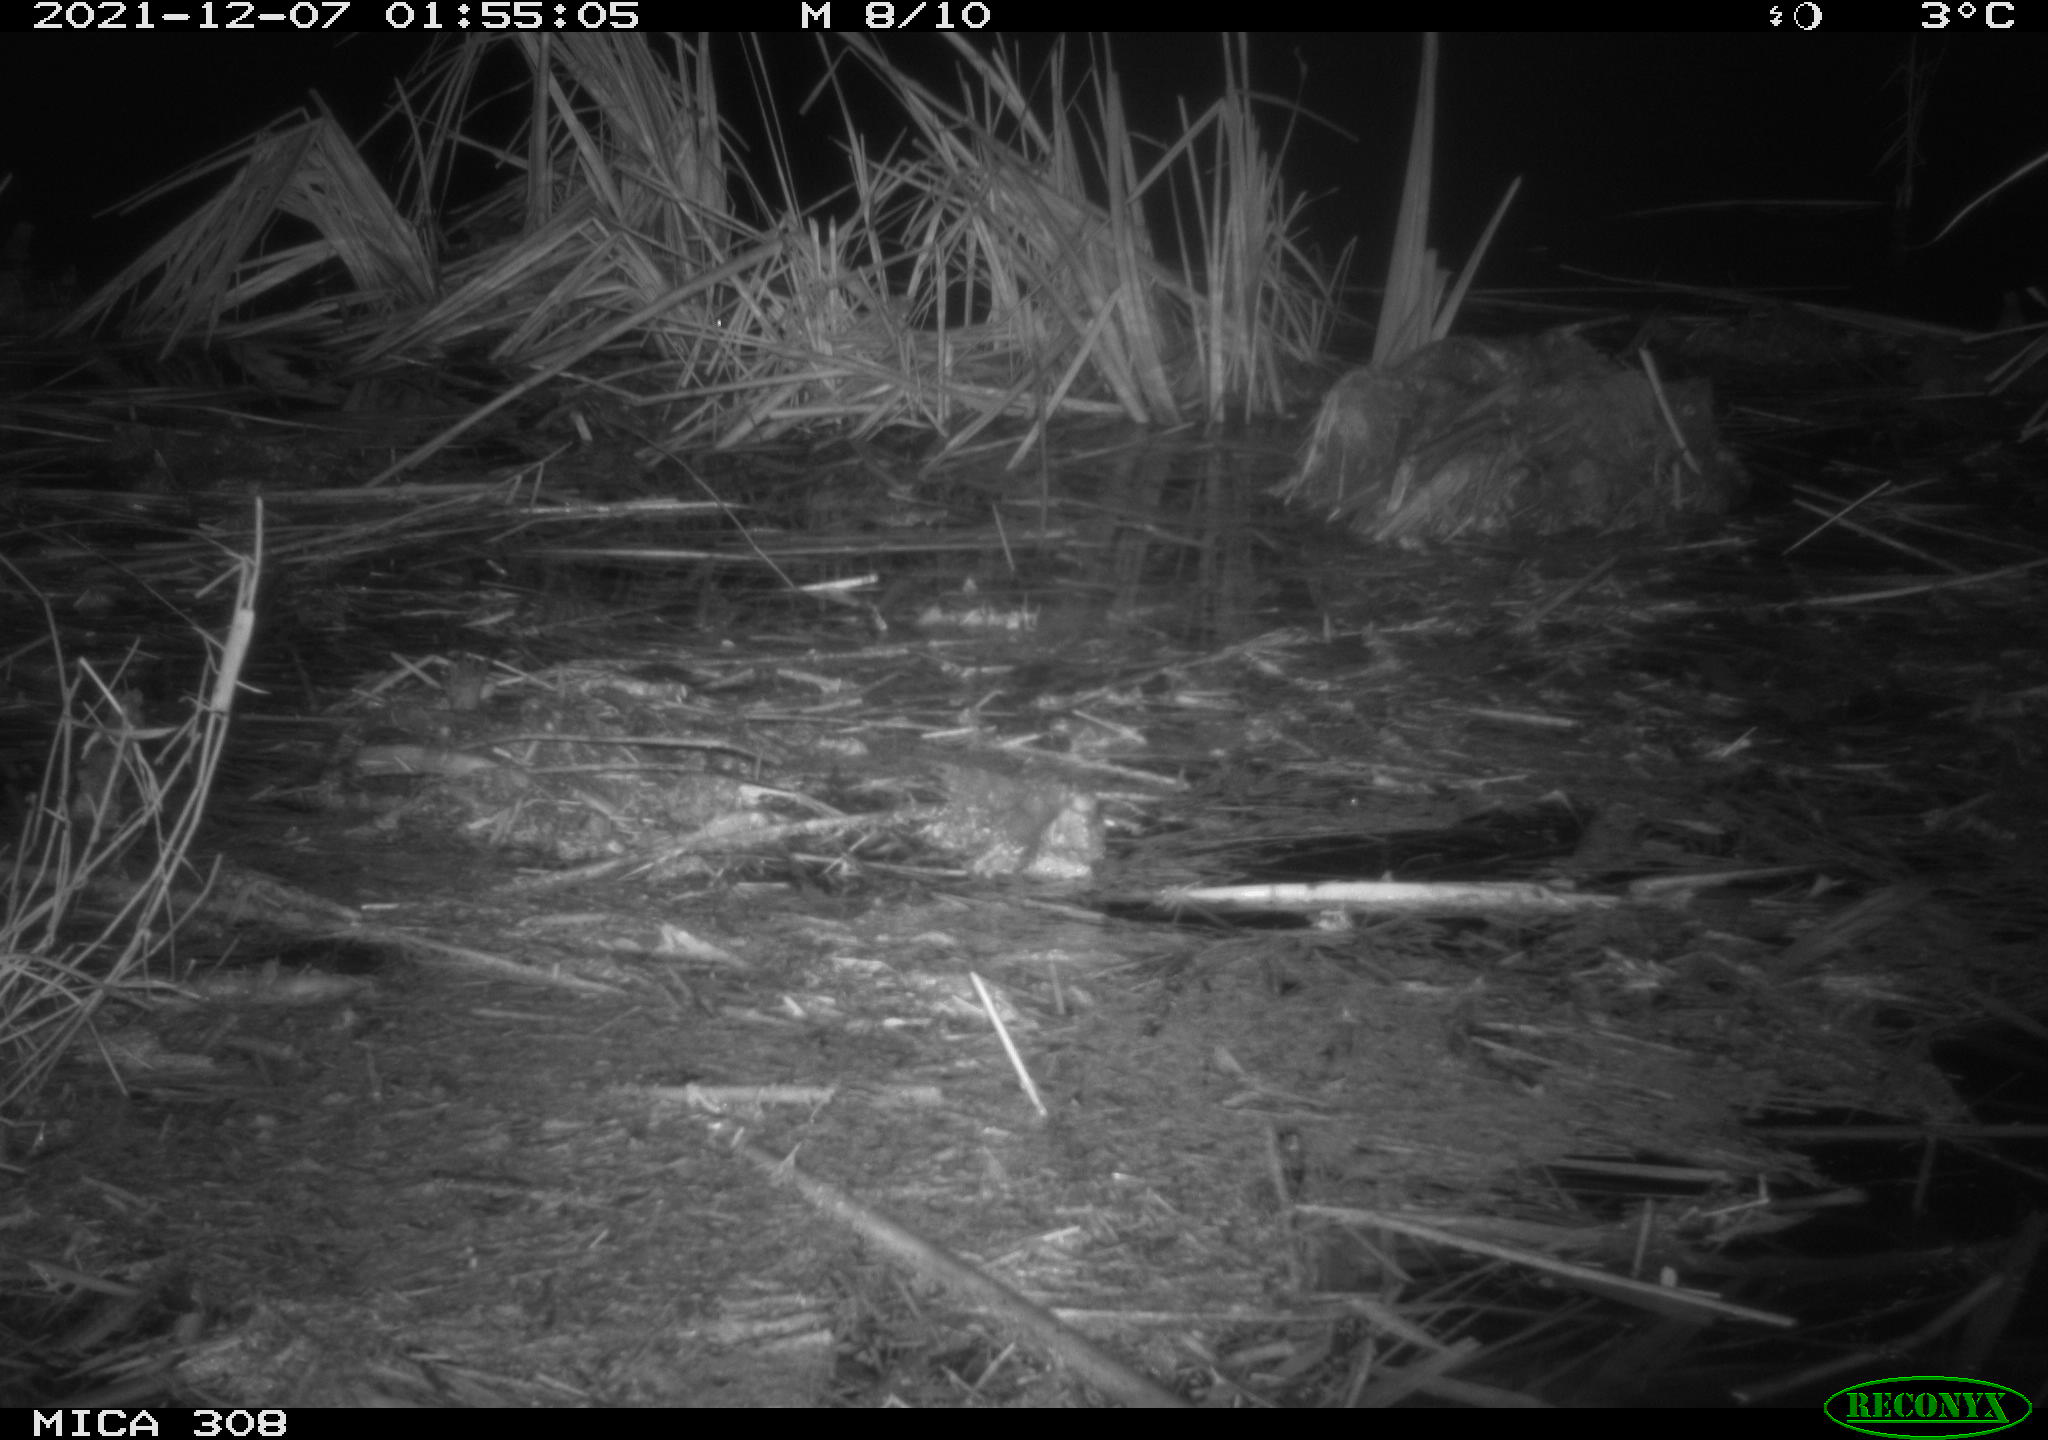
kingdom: Animalia
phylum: Chordata
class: Mammalia
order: Rodentia
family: Muridae
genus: Rattus
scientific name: Rattus norvegicus
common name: Brown rat
